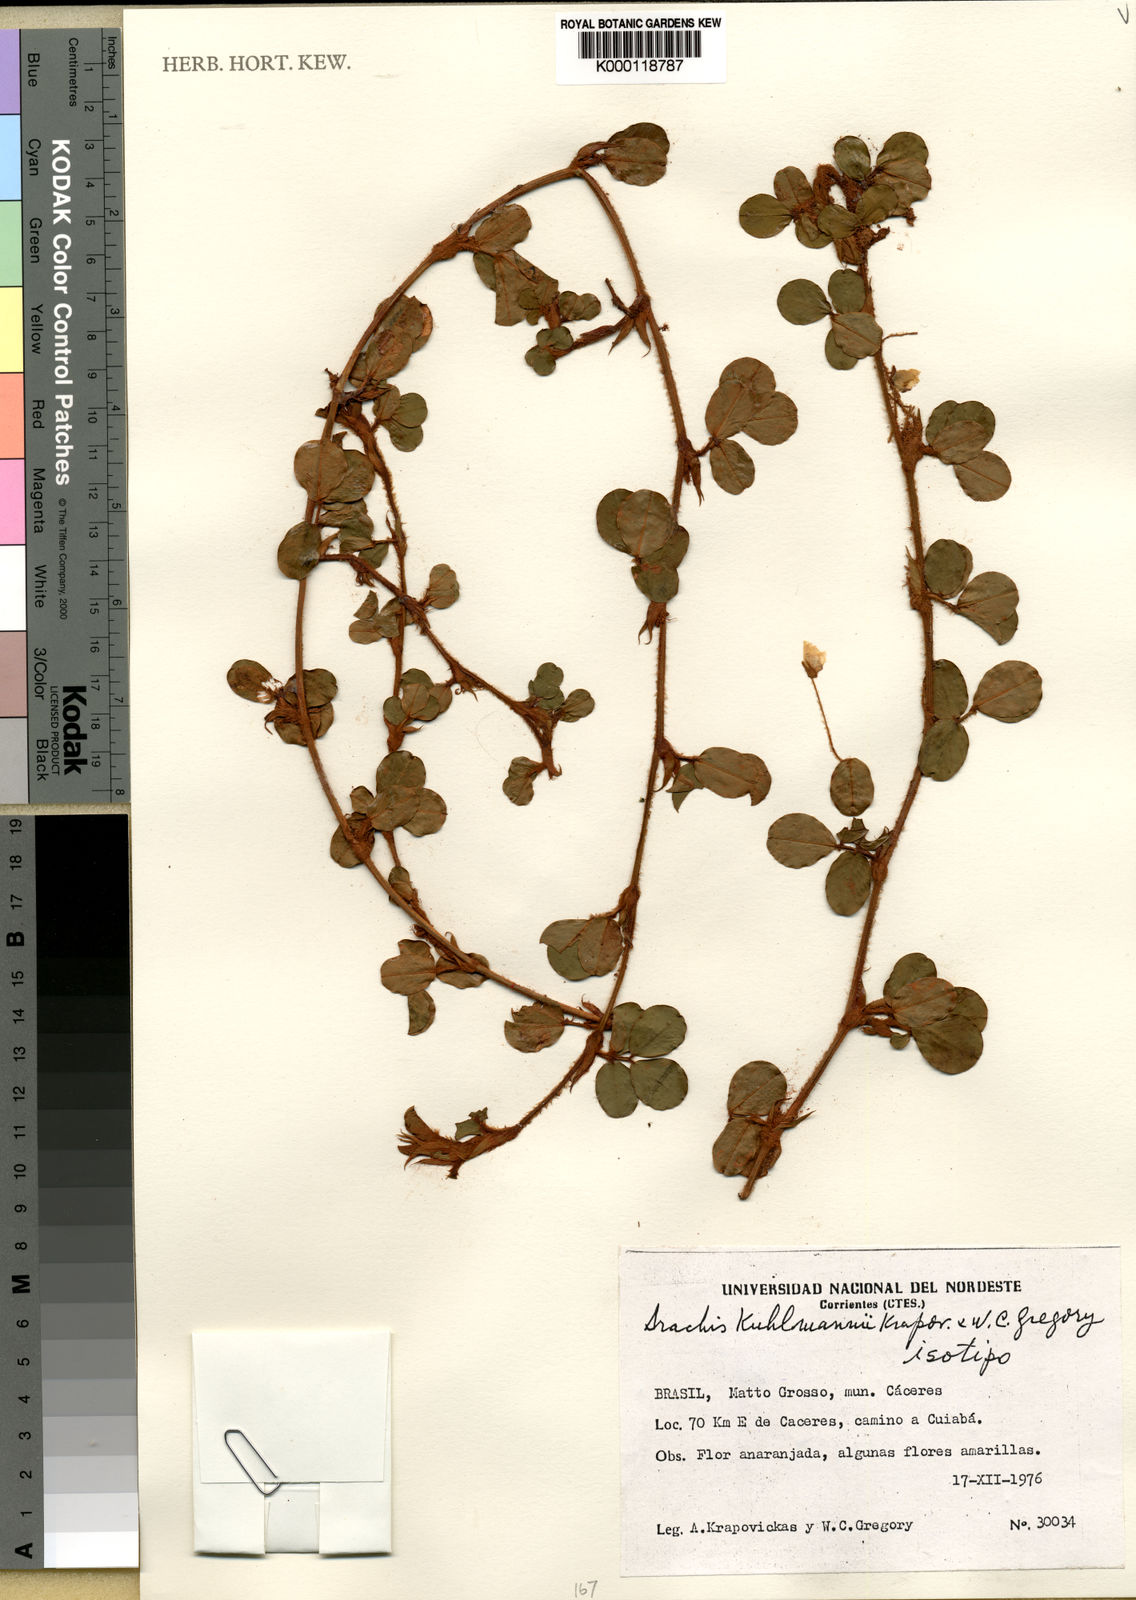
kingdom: Plantae
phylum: Tracheophyta
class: Magnoliopsida
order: Fabales
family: Fabaceae
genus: Arachis
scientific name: Arachis
